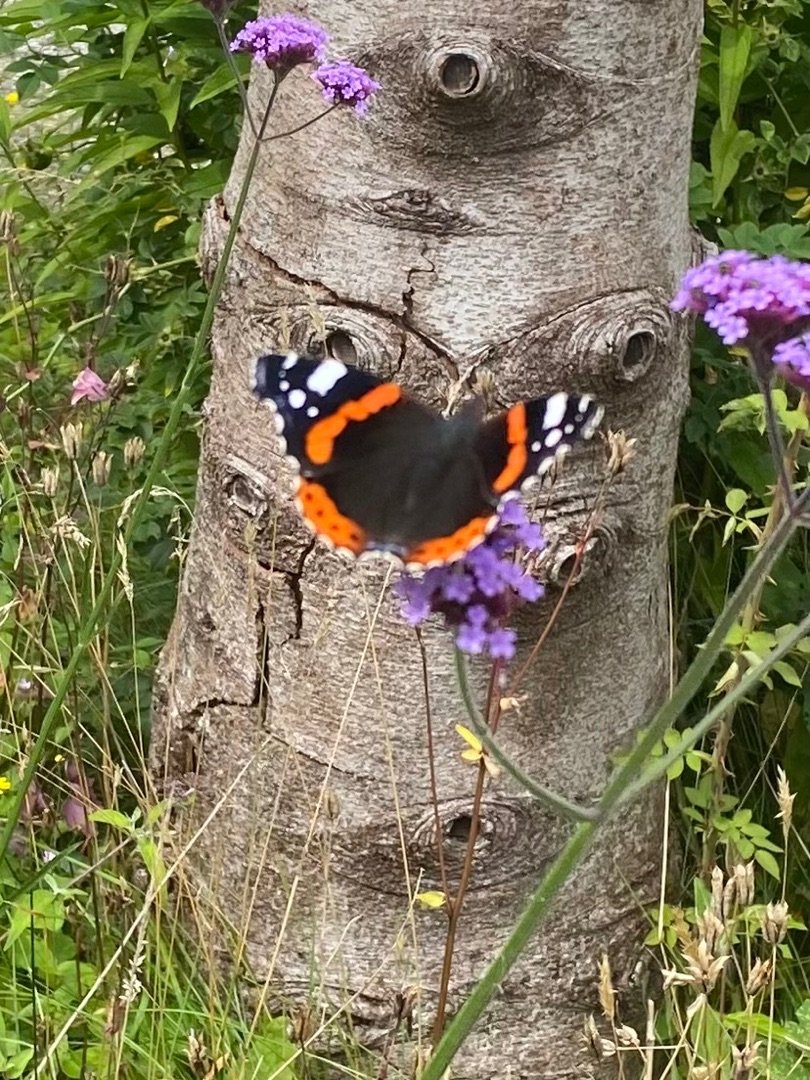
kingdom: Animalia
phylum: Arthropoda
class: Insecta
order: Lepidoptera
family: Nymphalidae
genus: Vanessa
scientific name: Vanessa atalanta
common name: Admiral
